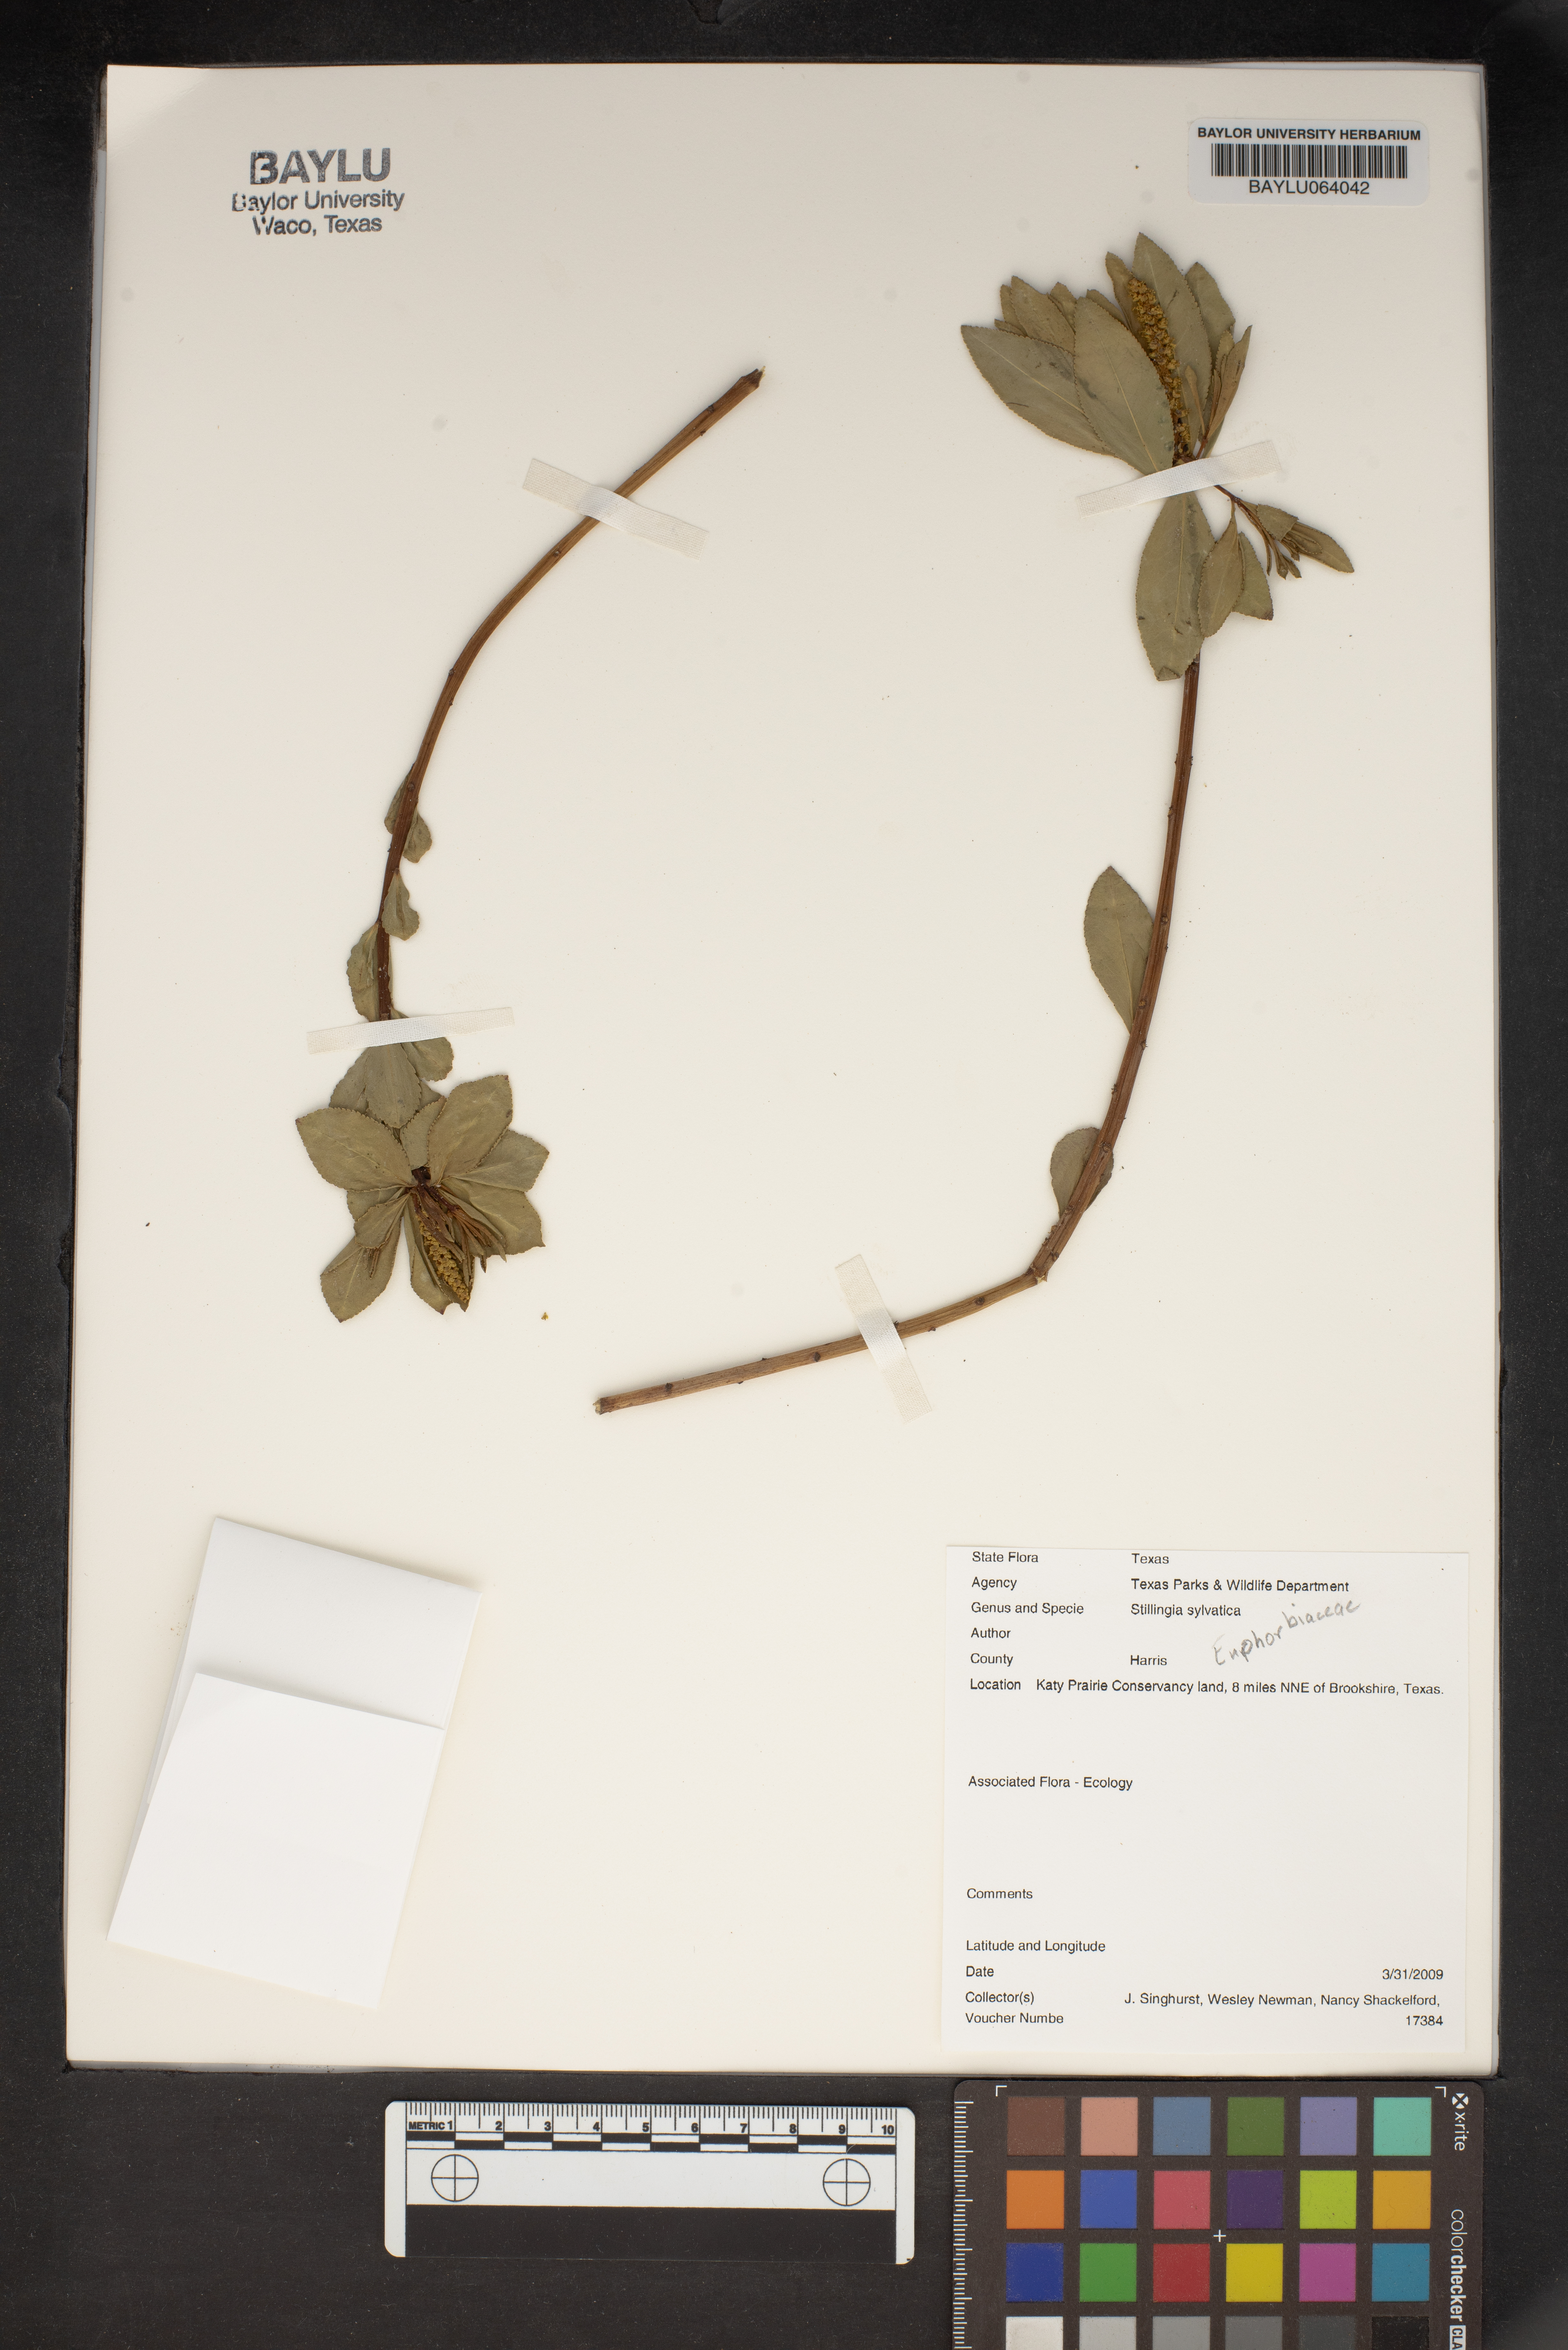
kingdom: Plantae
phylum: Tracheophyta
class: Magnoliopsida
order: Malpighiales
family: Euphorbiaceae
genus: Stillingia
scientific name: Stillingia sylvatica
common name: Queen's-delight
